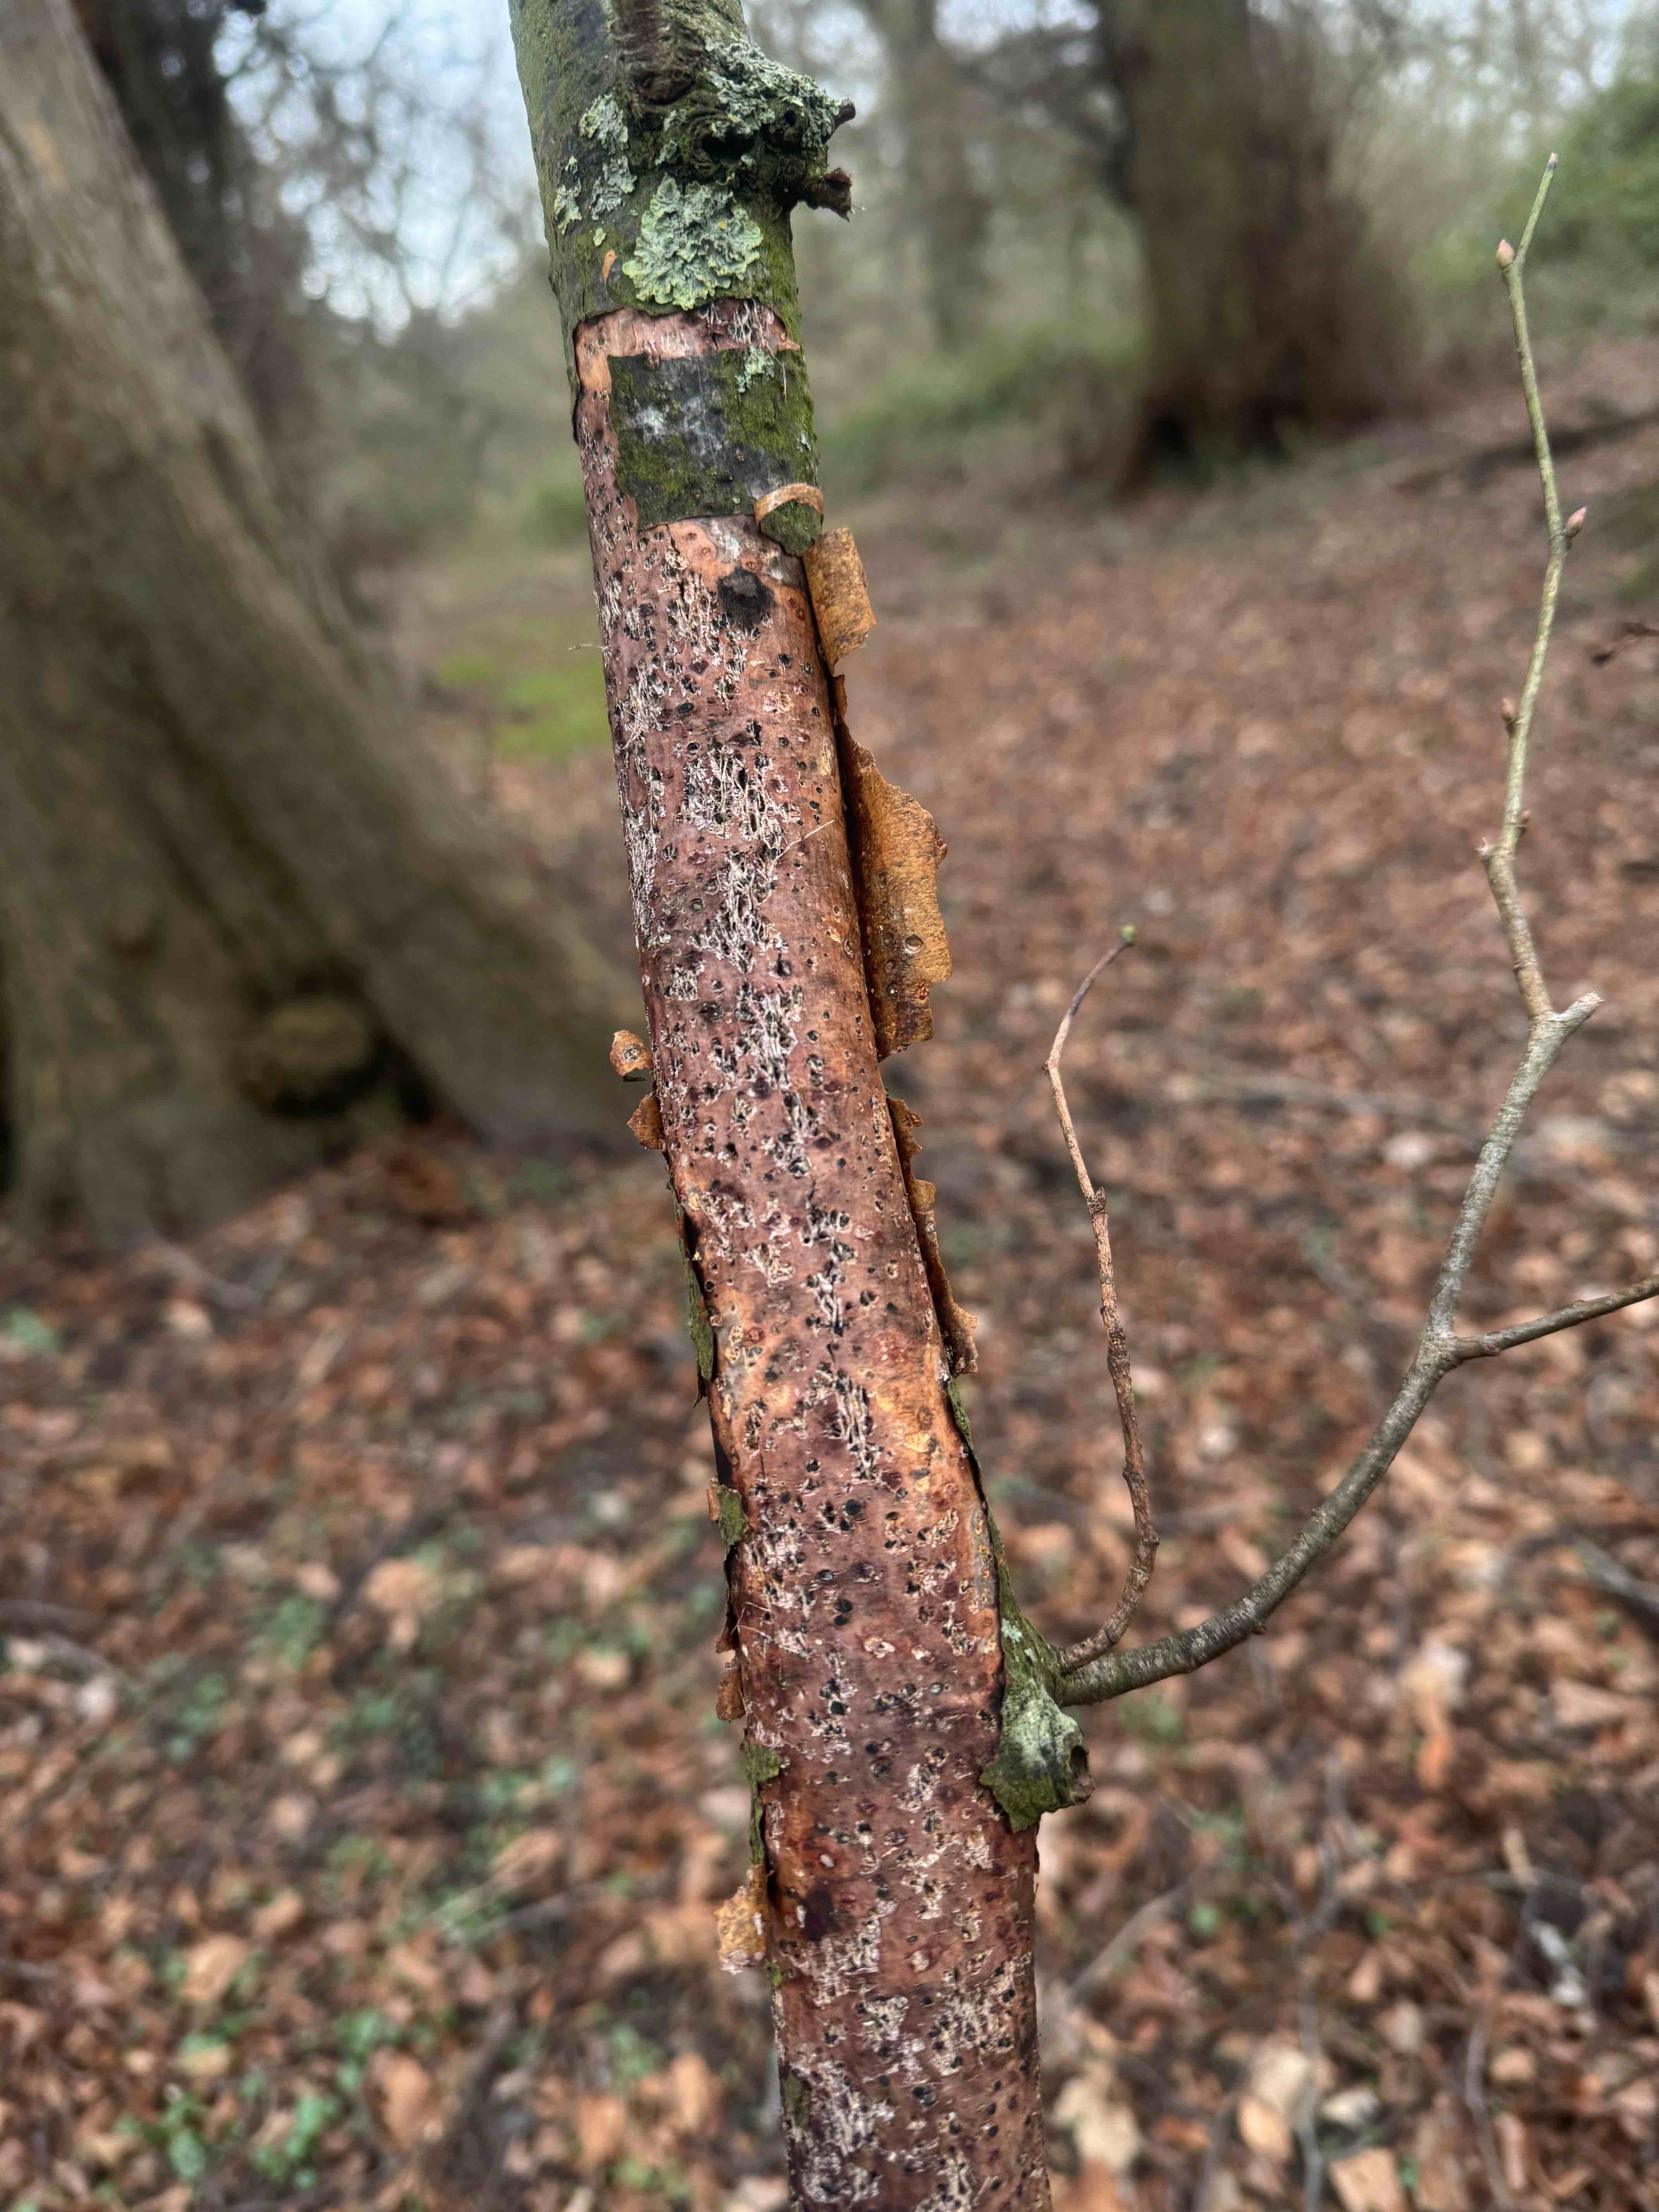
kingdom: Fungi
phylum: Basidiomycota
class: Agaricomycetes
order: Corticiales
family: Vuilleminiaceae
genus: Vuilleminia
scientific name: Vuilleminia comedens
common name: almindelig barksprænger
